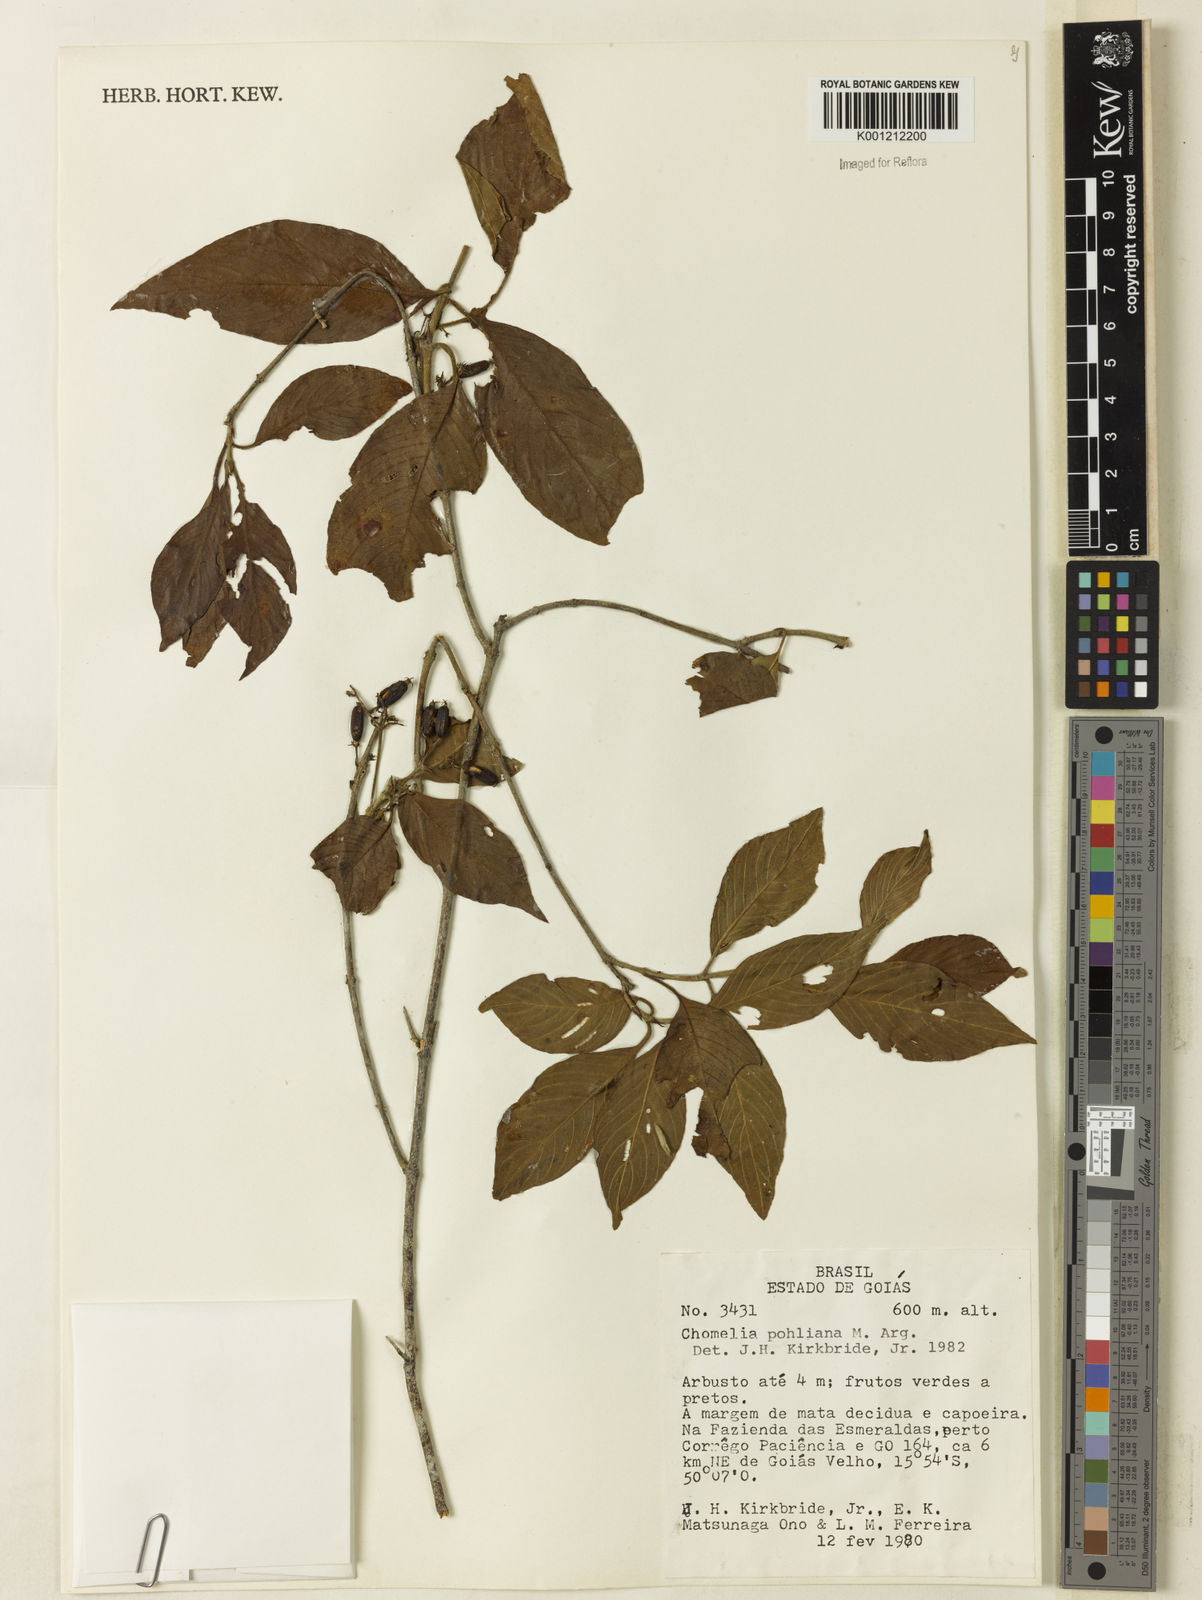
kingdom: Plantae
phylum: Tracheophyta
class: Magnoliopsida
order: Gentianales
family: Rubiaceae
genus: Chomelia
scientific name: Chomelia
